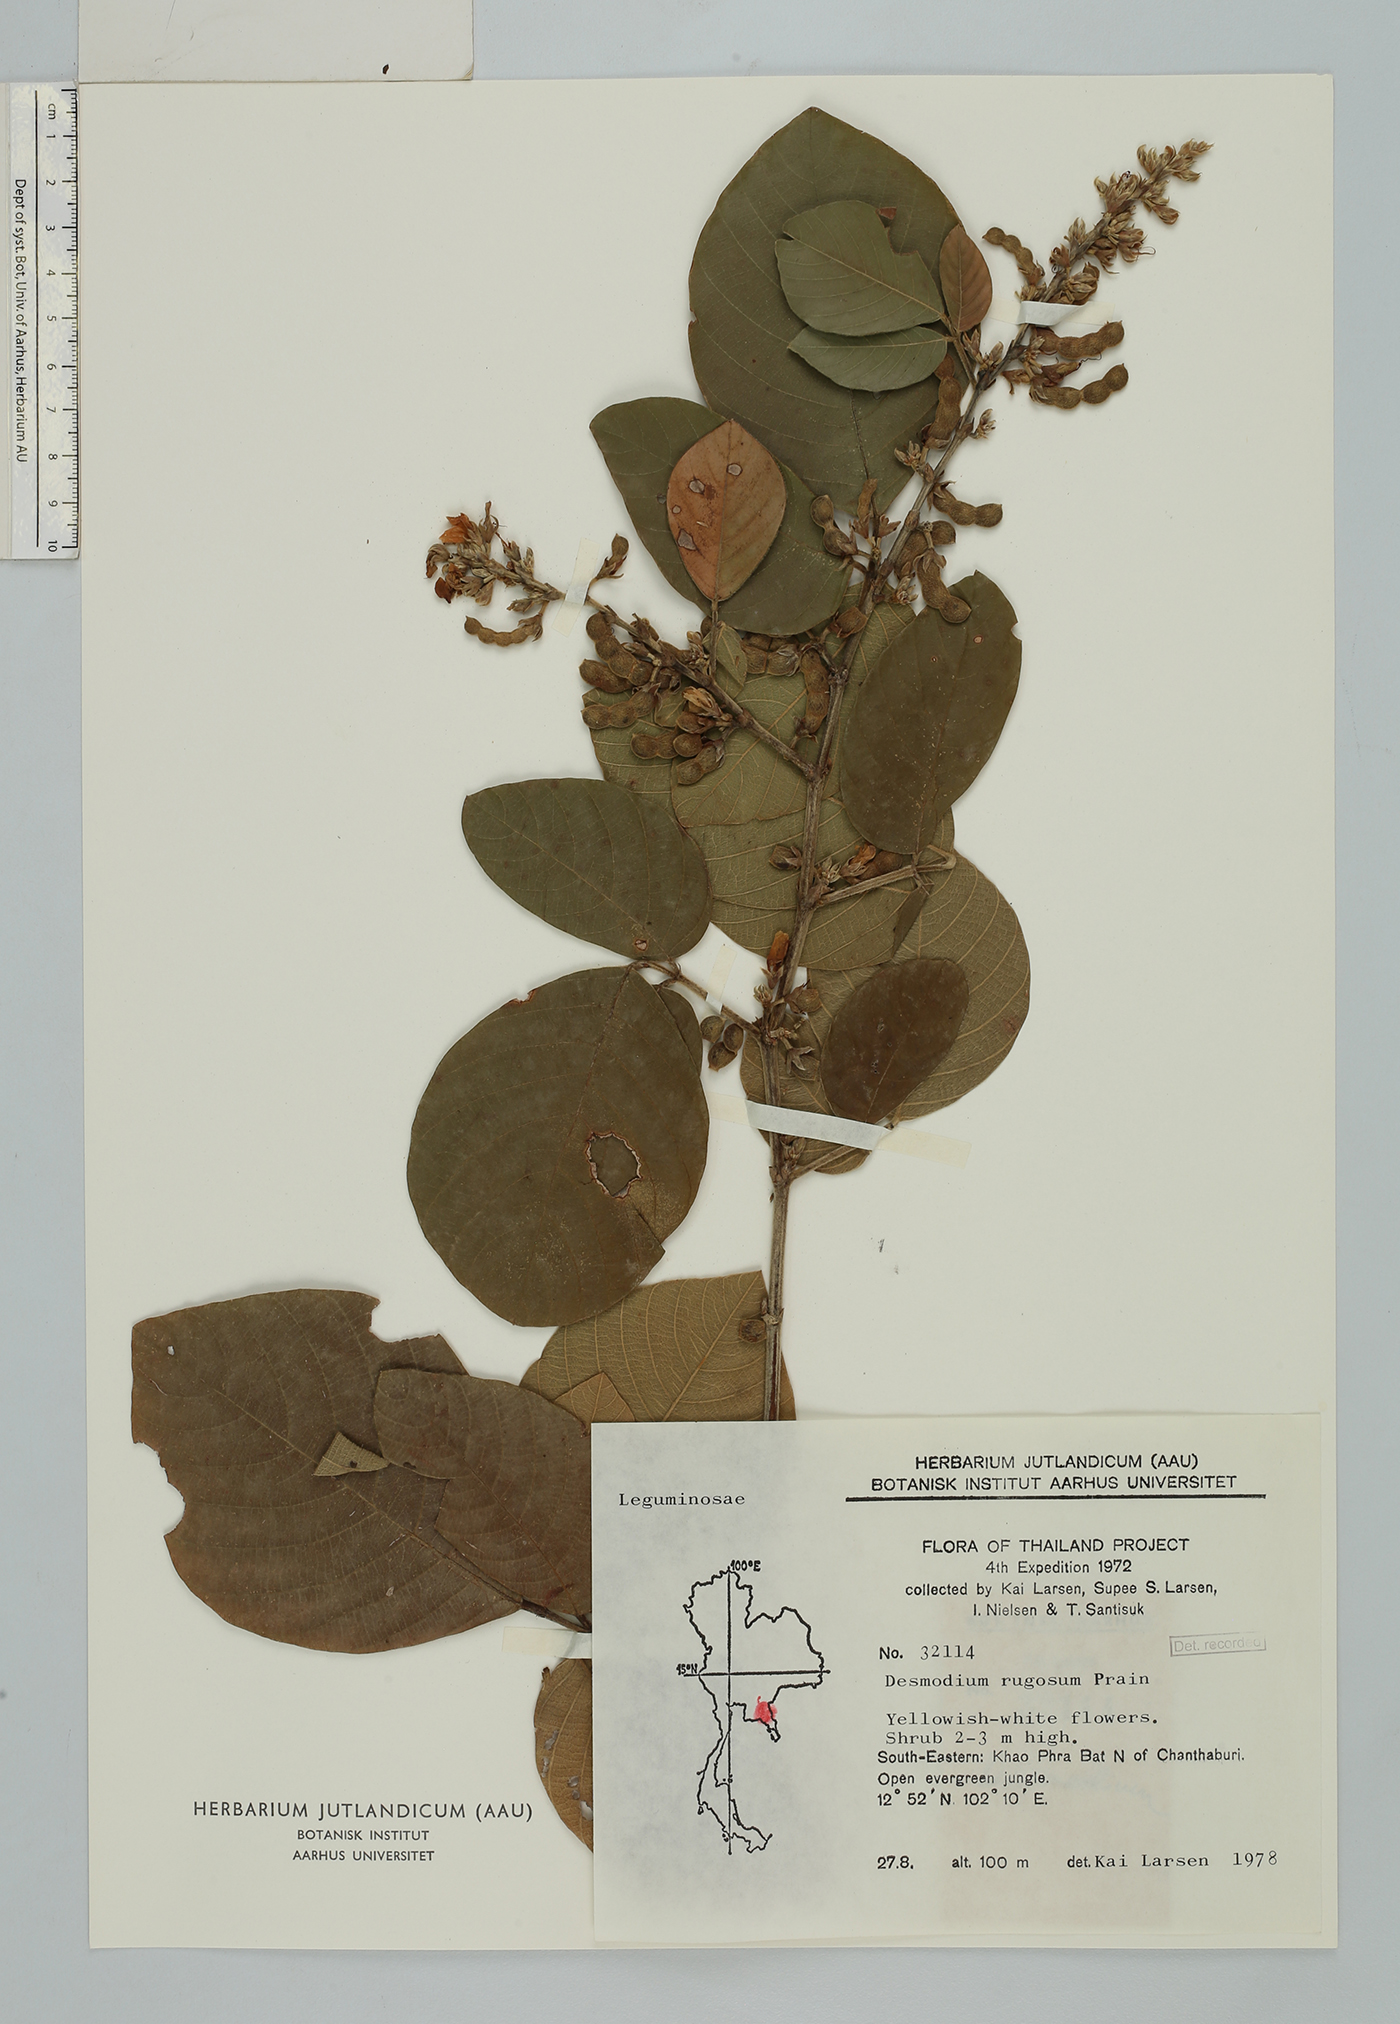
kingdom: Plantae
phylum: Tracheophyta
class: Magnoliopsida
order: Fabales
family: Fabaceae
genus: Dendrolobium
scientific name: Dendrolobium rugosum
